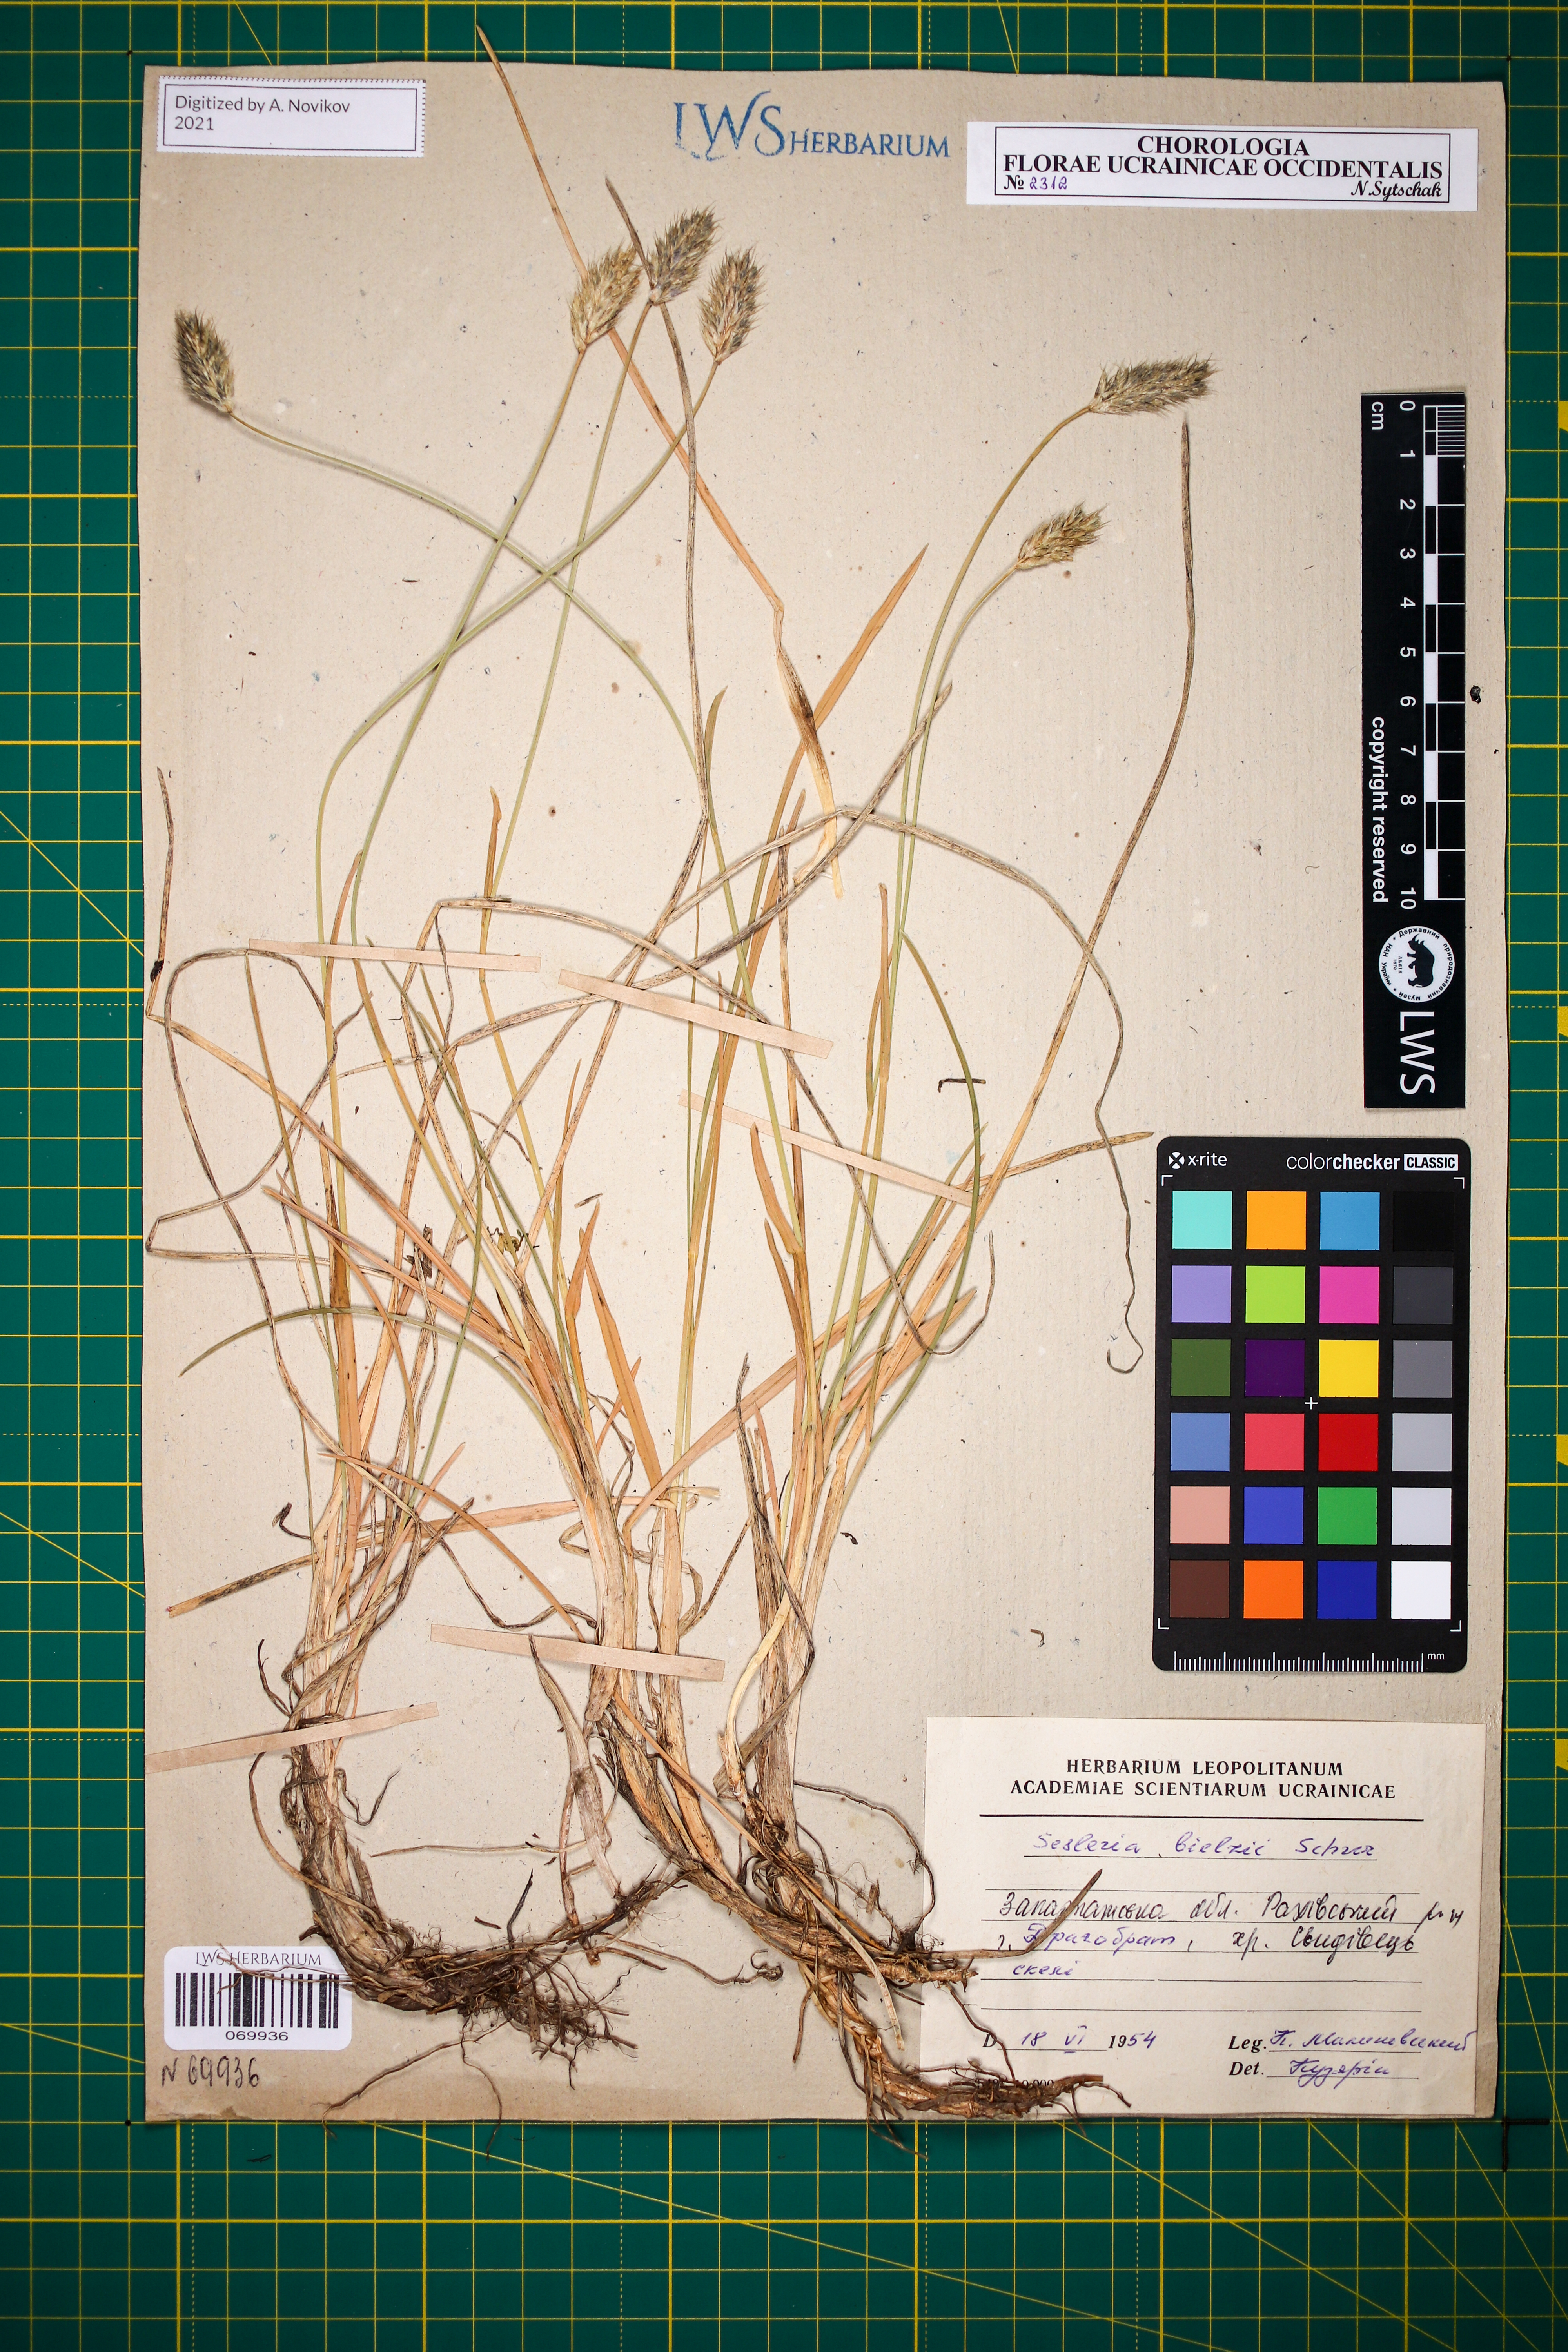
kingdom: Plantae
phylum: Tracheophyta
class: Liliopsida
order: Poales
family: Poaceae
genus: Sesleria
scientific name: Sesleria bielzii
